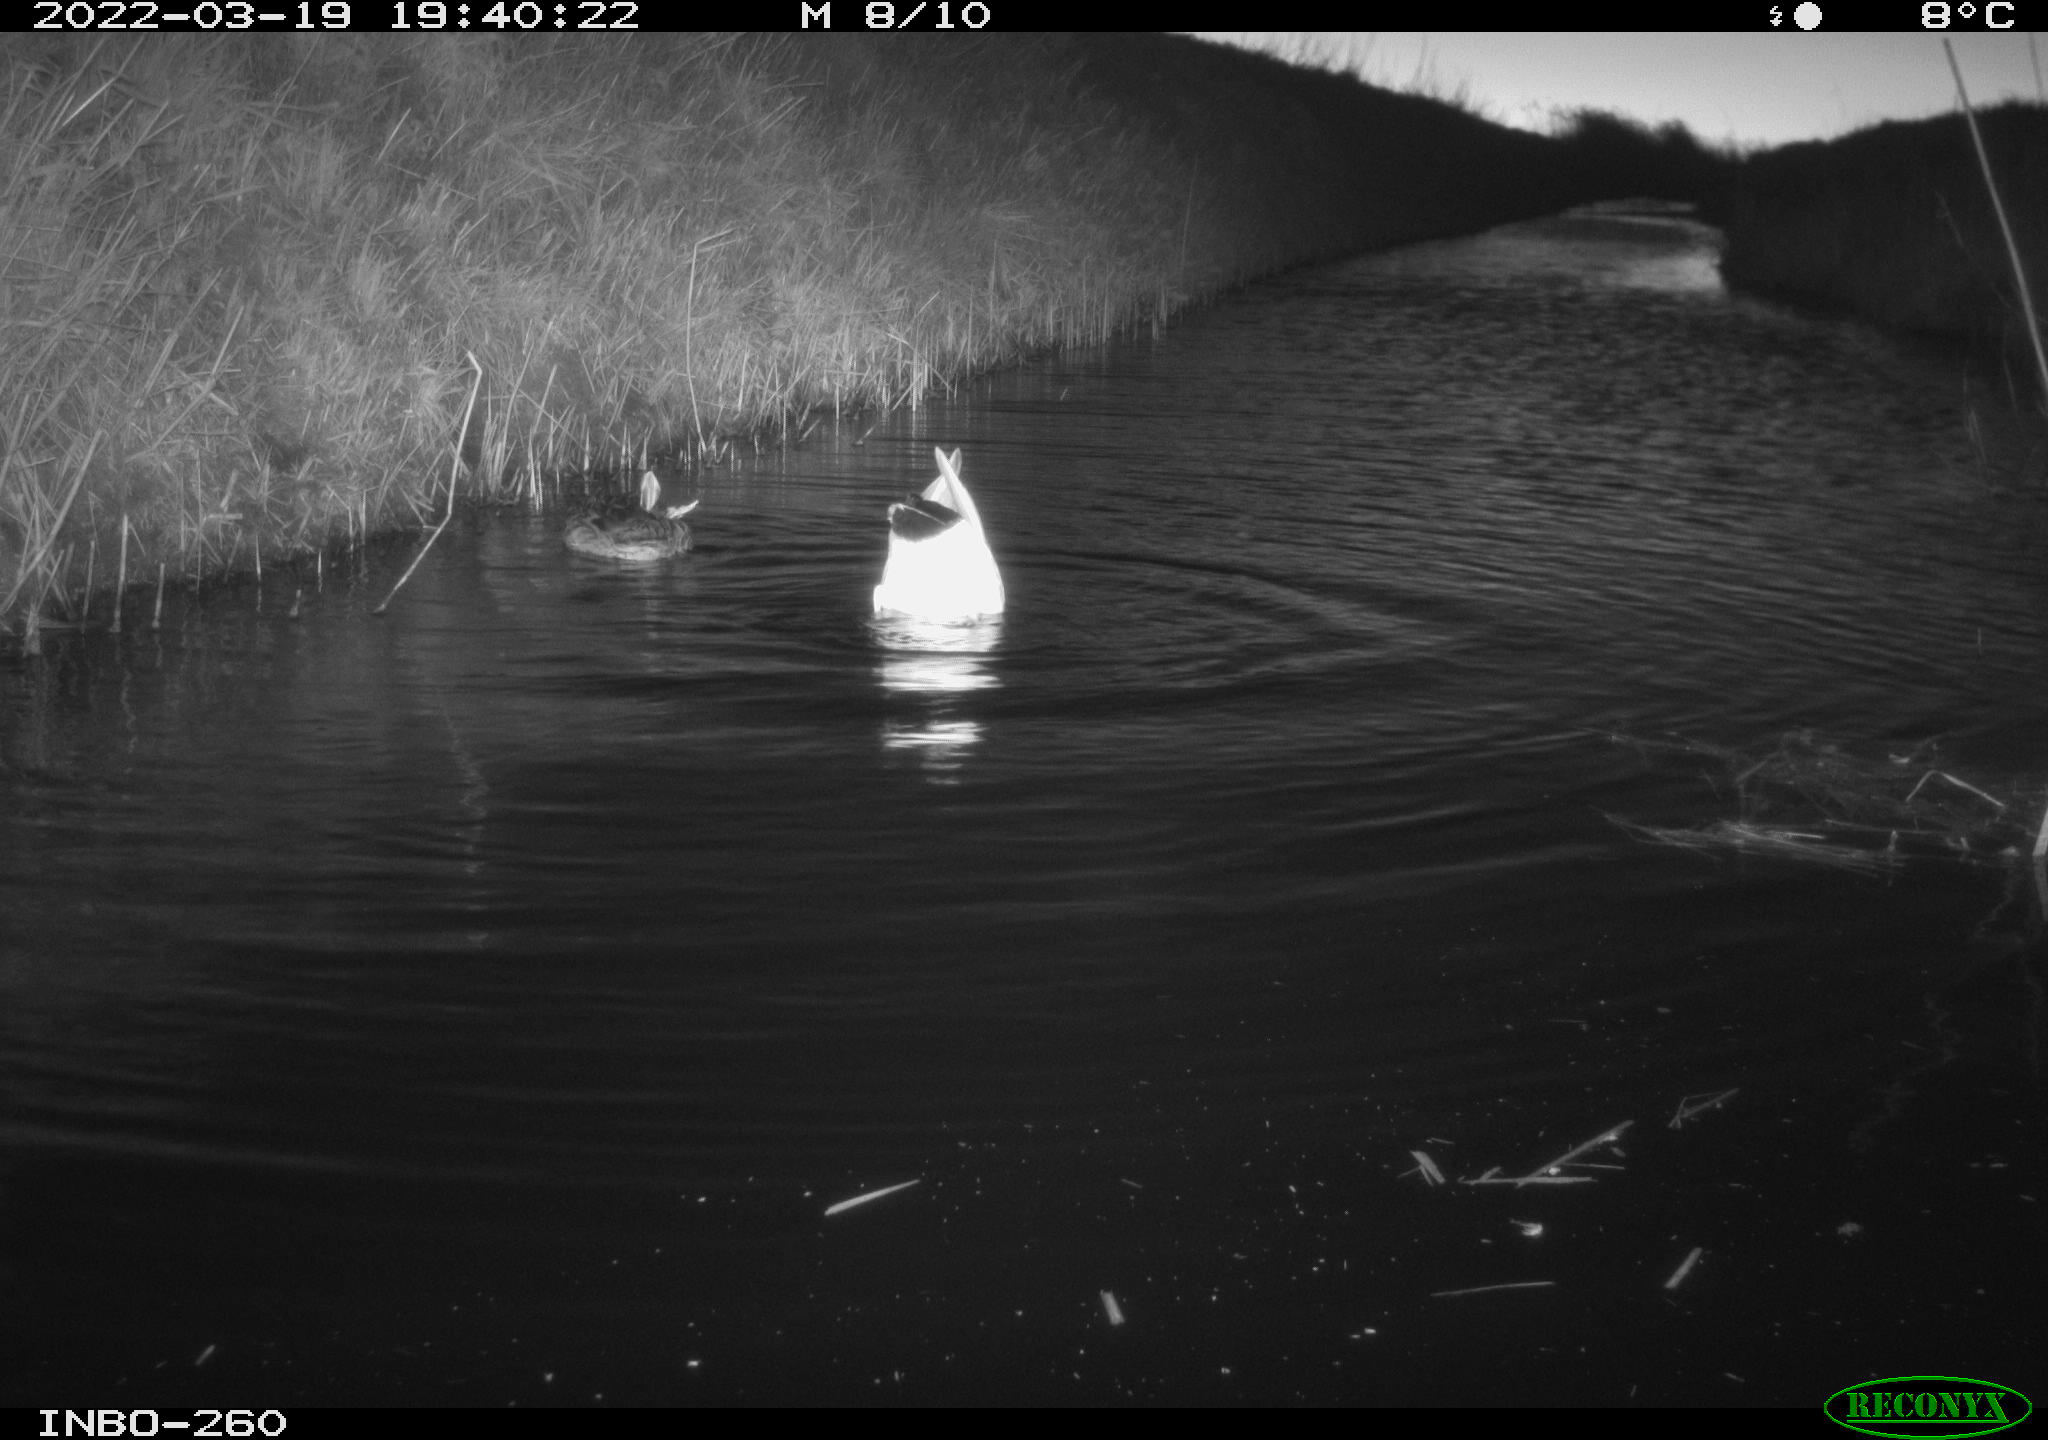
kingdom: Animalia
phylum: Chordata
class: Aves
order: Anseriformes
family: Anatidae
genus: Anas
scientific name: Anas platyrhynchos
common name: Mallard
